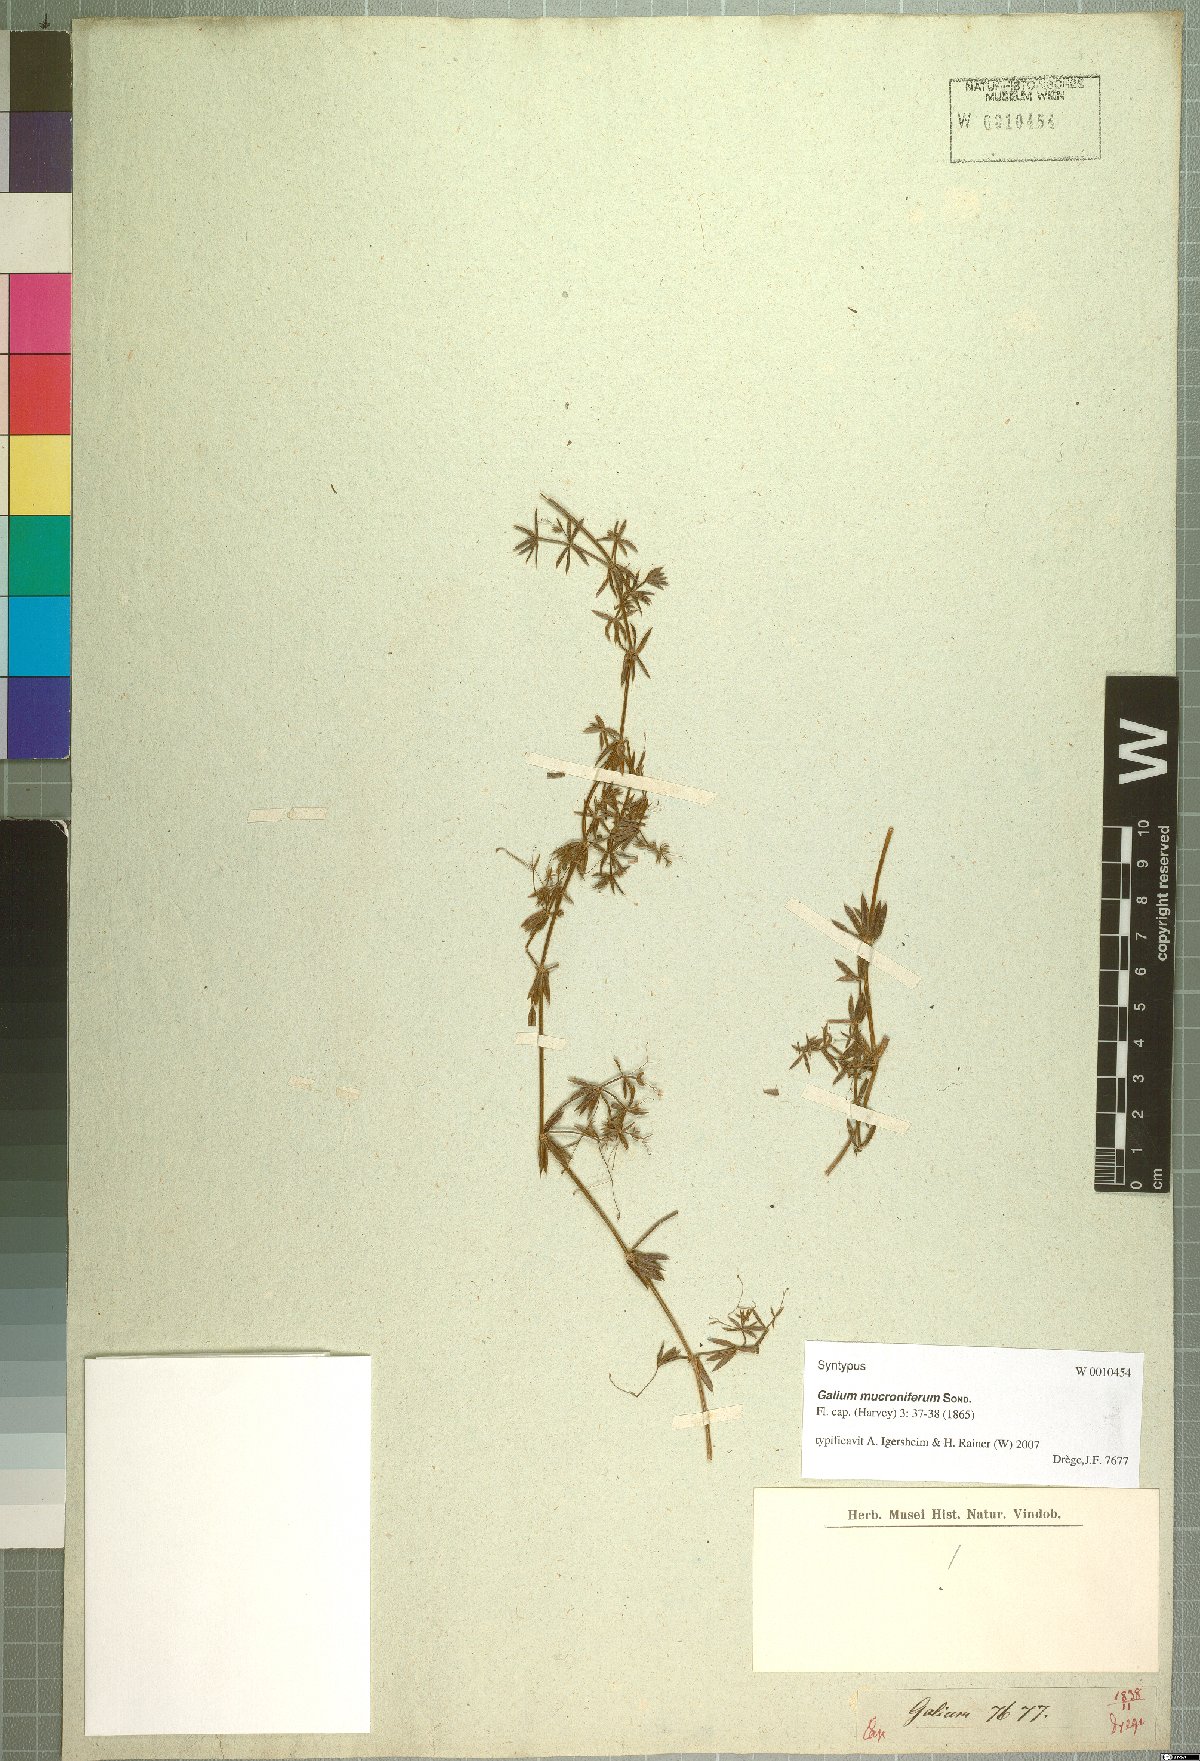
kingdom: Plantae
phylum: Tracheophyta
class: Magnoliopsida
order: Gentianales
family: Rubiaceae
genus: Galium
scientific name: Galium mucroniferum
